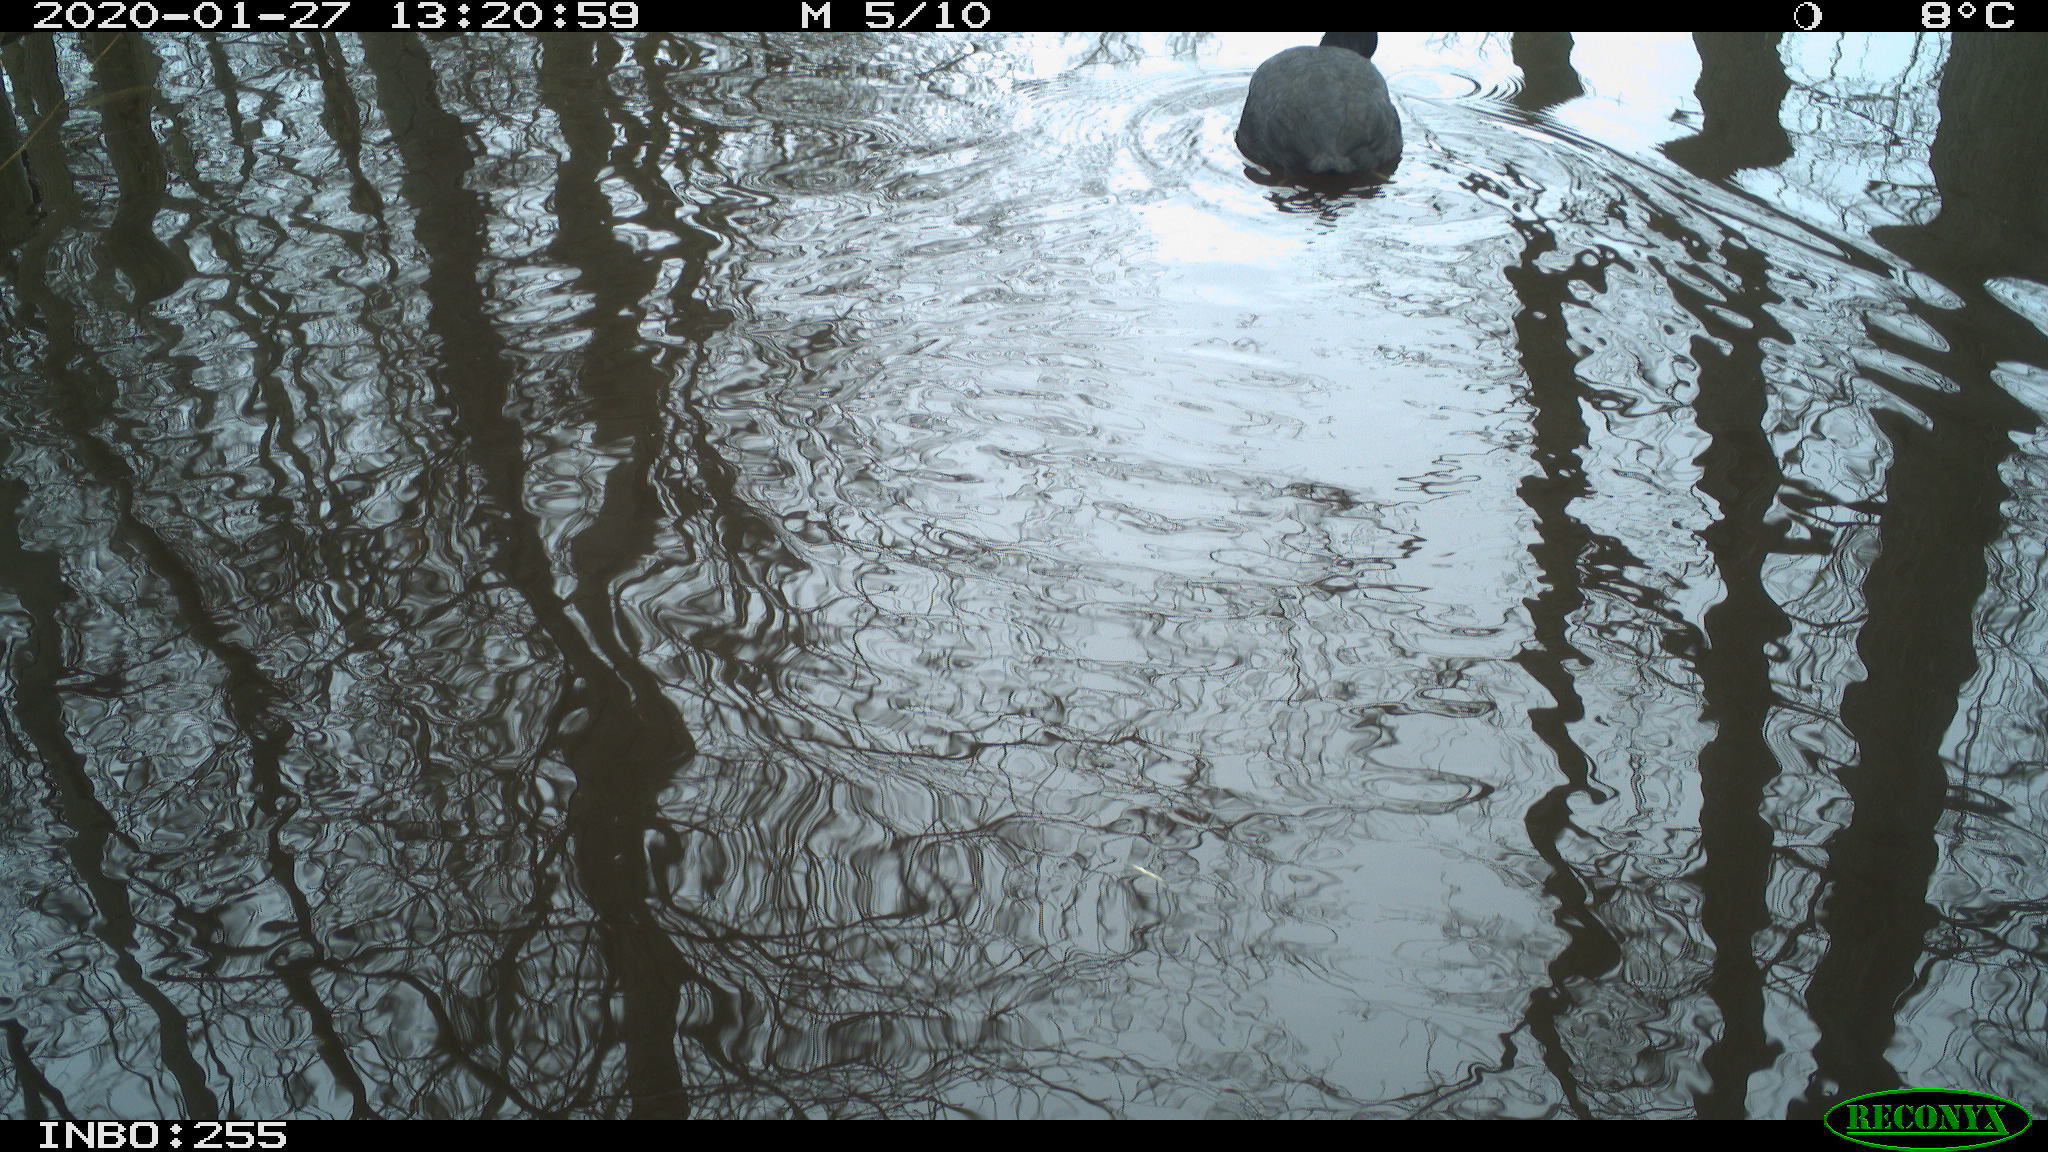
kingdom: Animalia
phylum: Chordata
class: Aves
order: Gruiformes
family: Rallidae
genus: Fulica
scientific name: Fulica atra
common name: Eurasian coot
